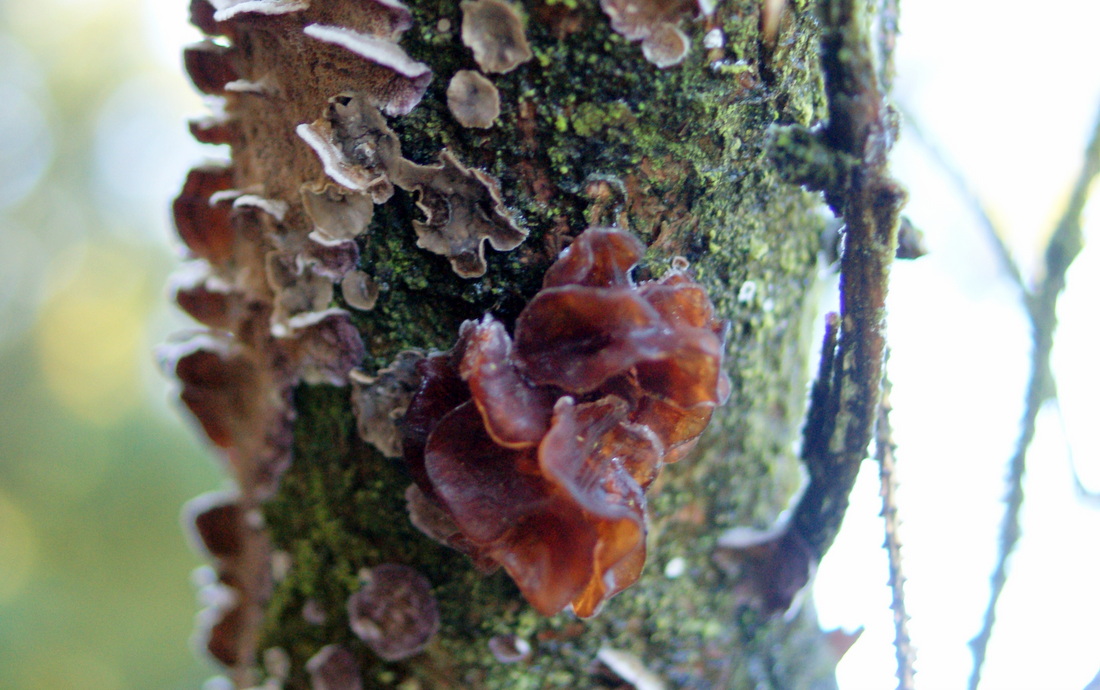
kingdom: Fungi
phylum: Basidiomycota
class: Tremellomycetes
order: Tremellales
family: Tremellaceae
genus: Phaeotremella
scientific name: Phaeotremella foliacea
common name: brun bævresvamp
